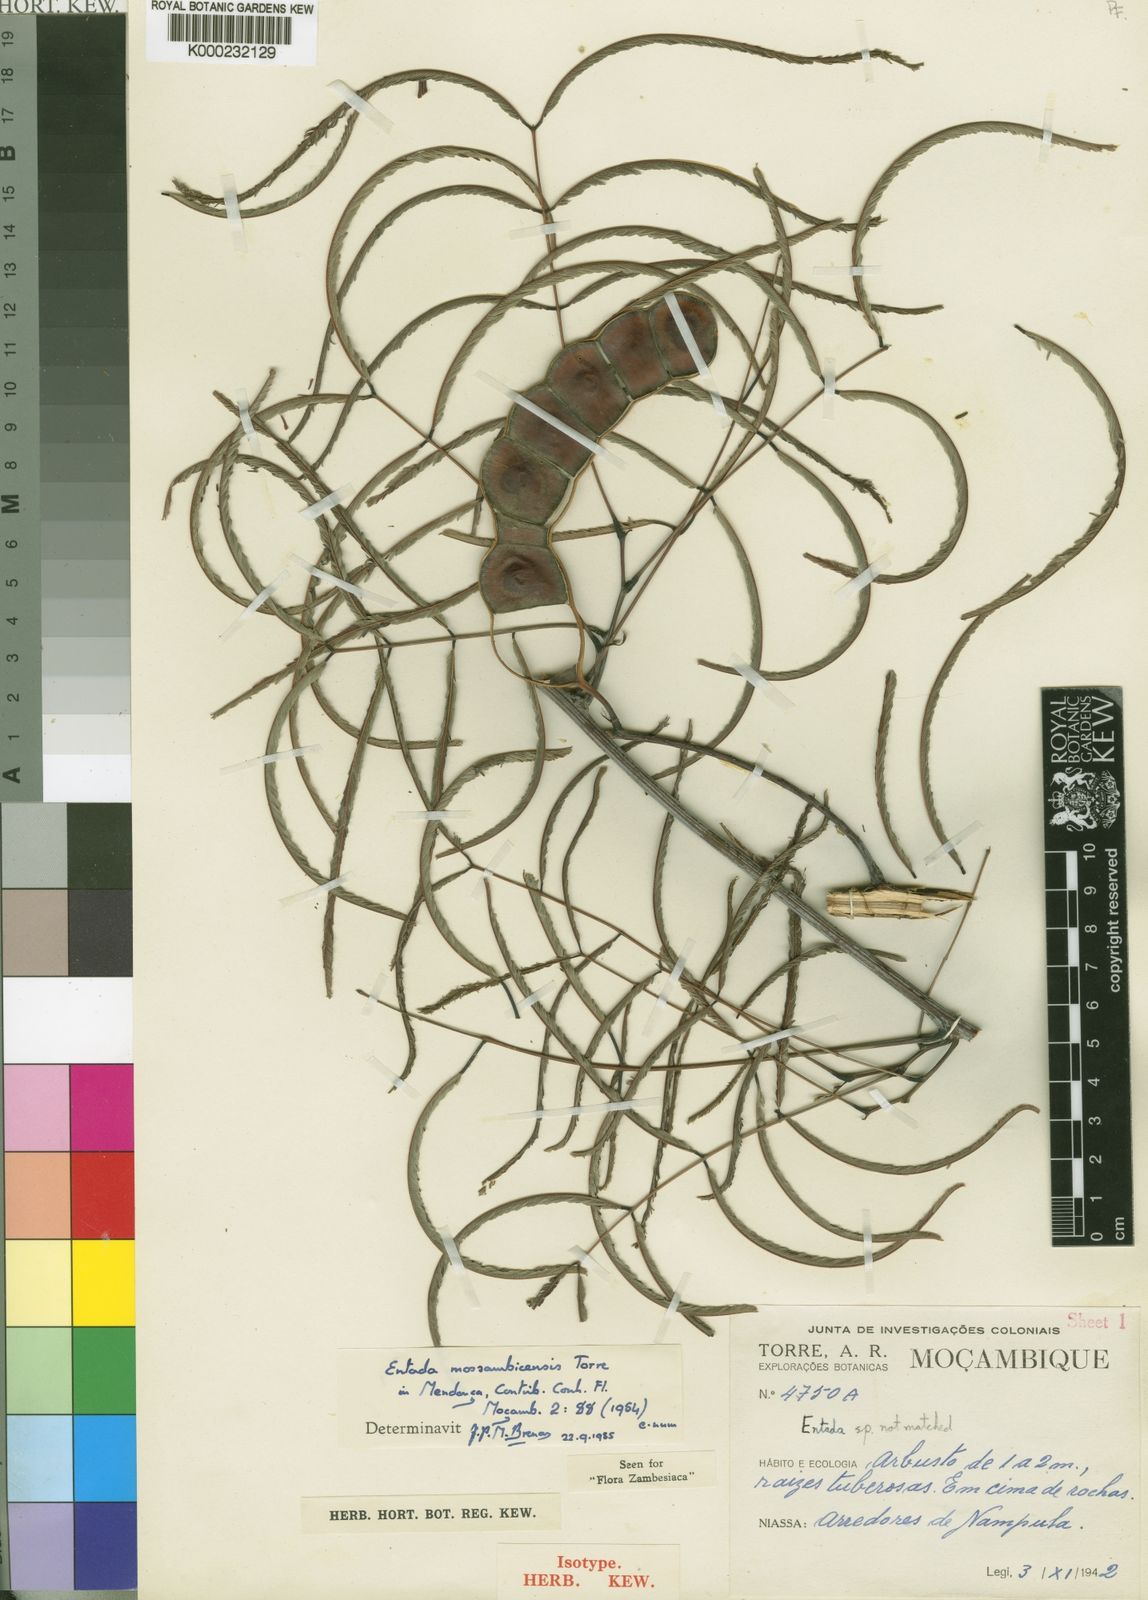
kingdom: Plantae
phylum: Tracheophyta
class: Magnoliopsida
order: Fabales
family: Fabaceae
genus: Entada
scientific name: Entada
